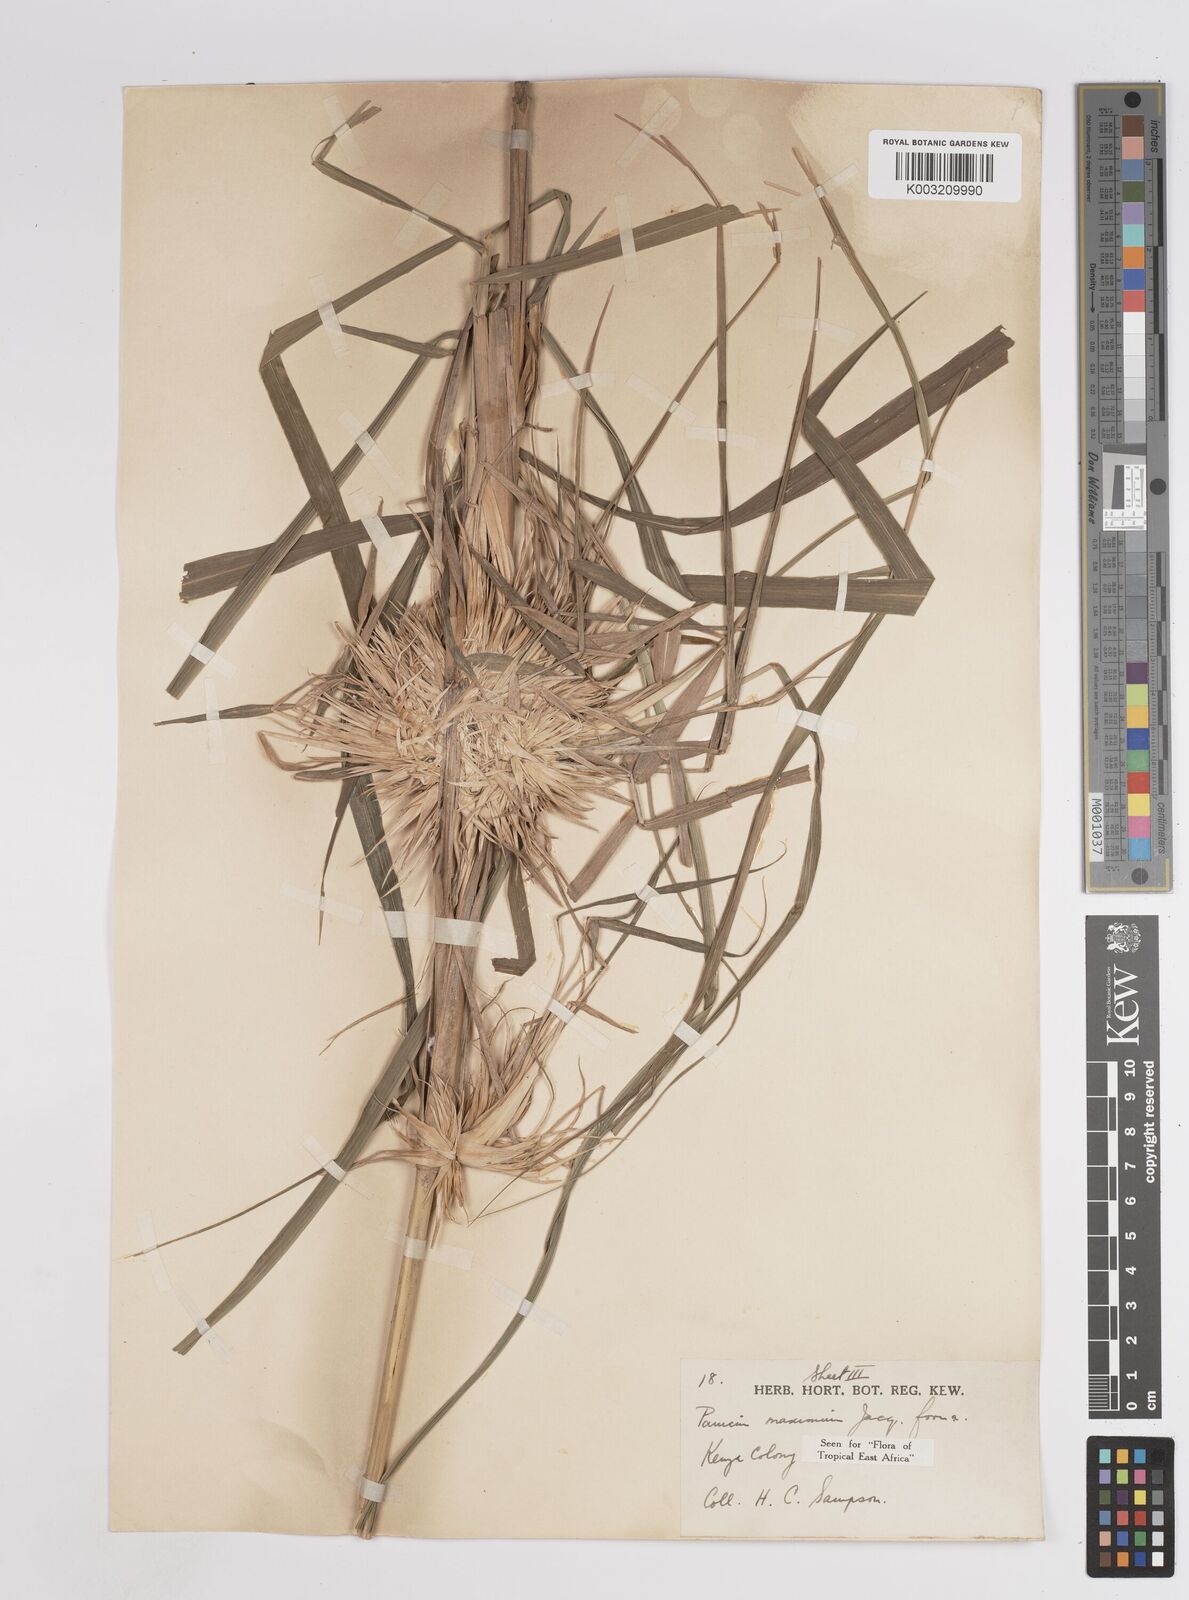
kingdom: Plantae
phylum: Tracheophyta
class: Liliopsida
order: Poales
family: Poaceae
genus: Megathyrsus
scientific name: Megathyrsus maximus
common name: Guineagrass
